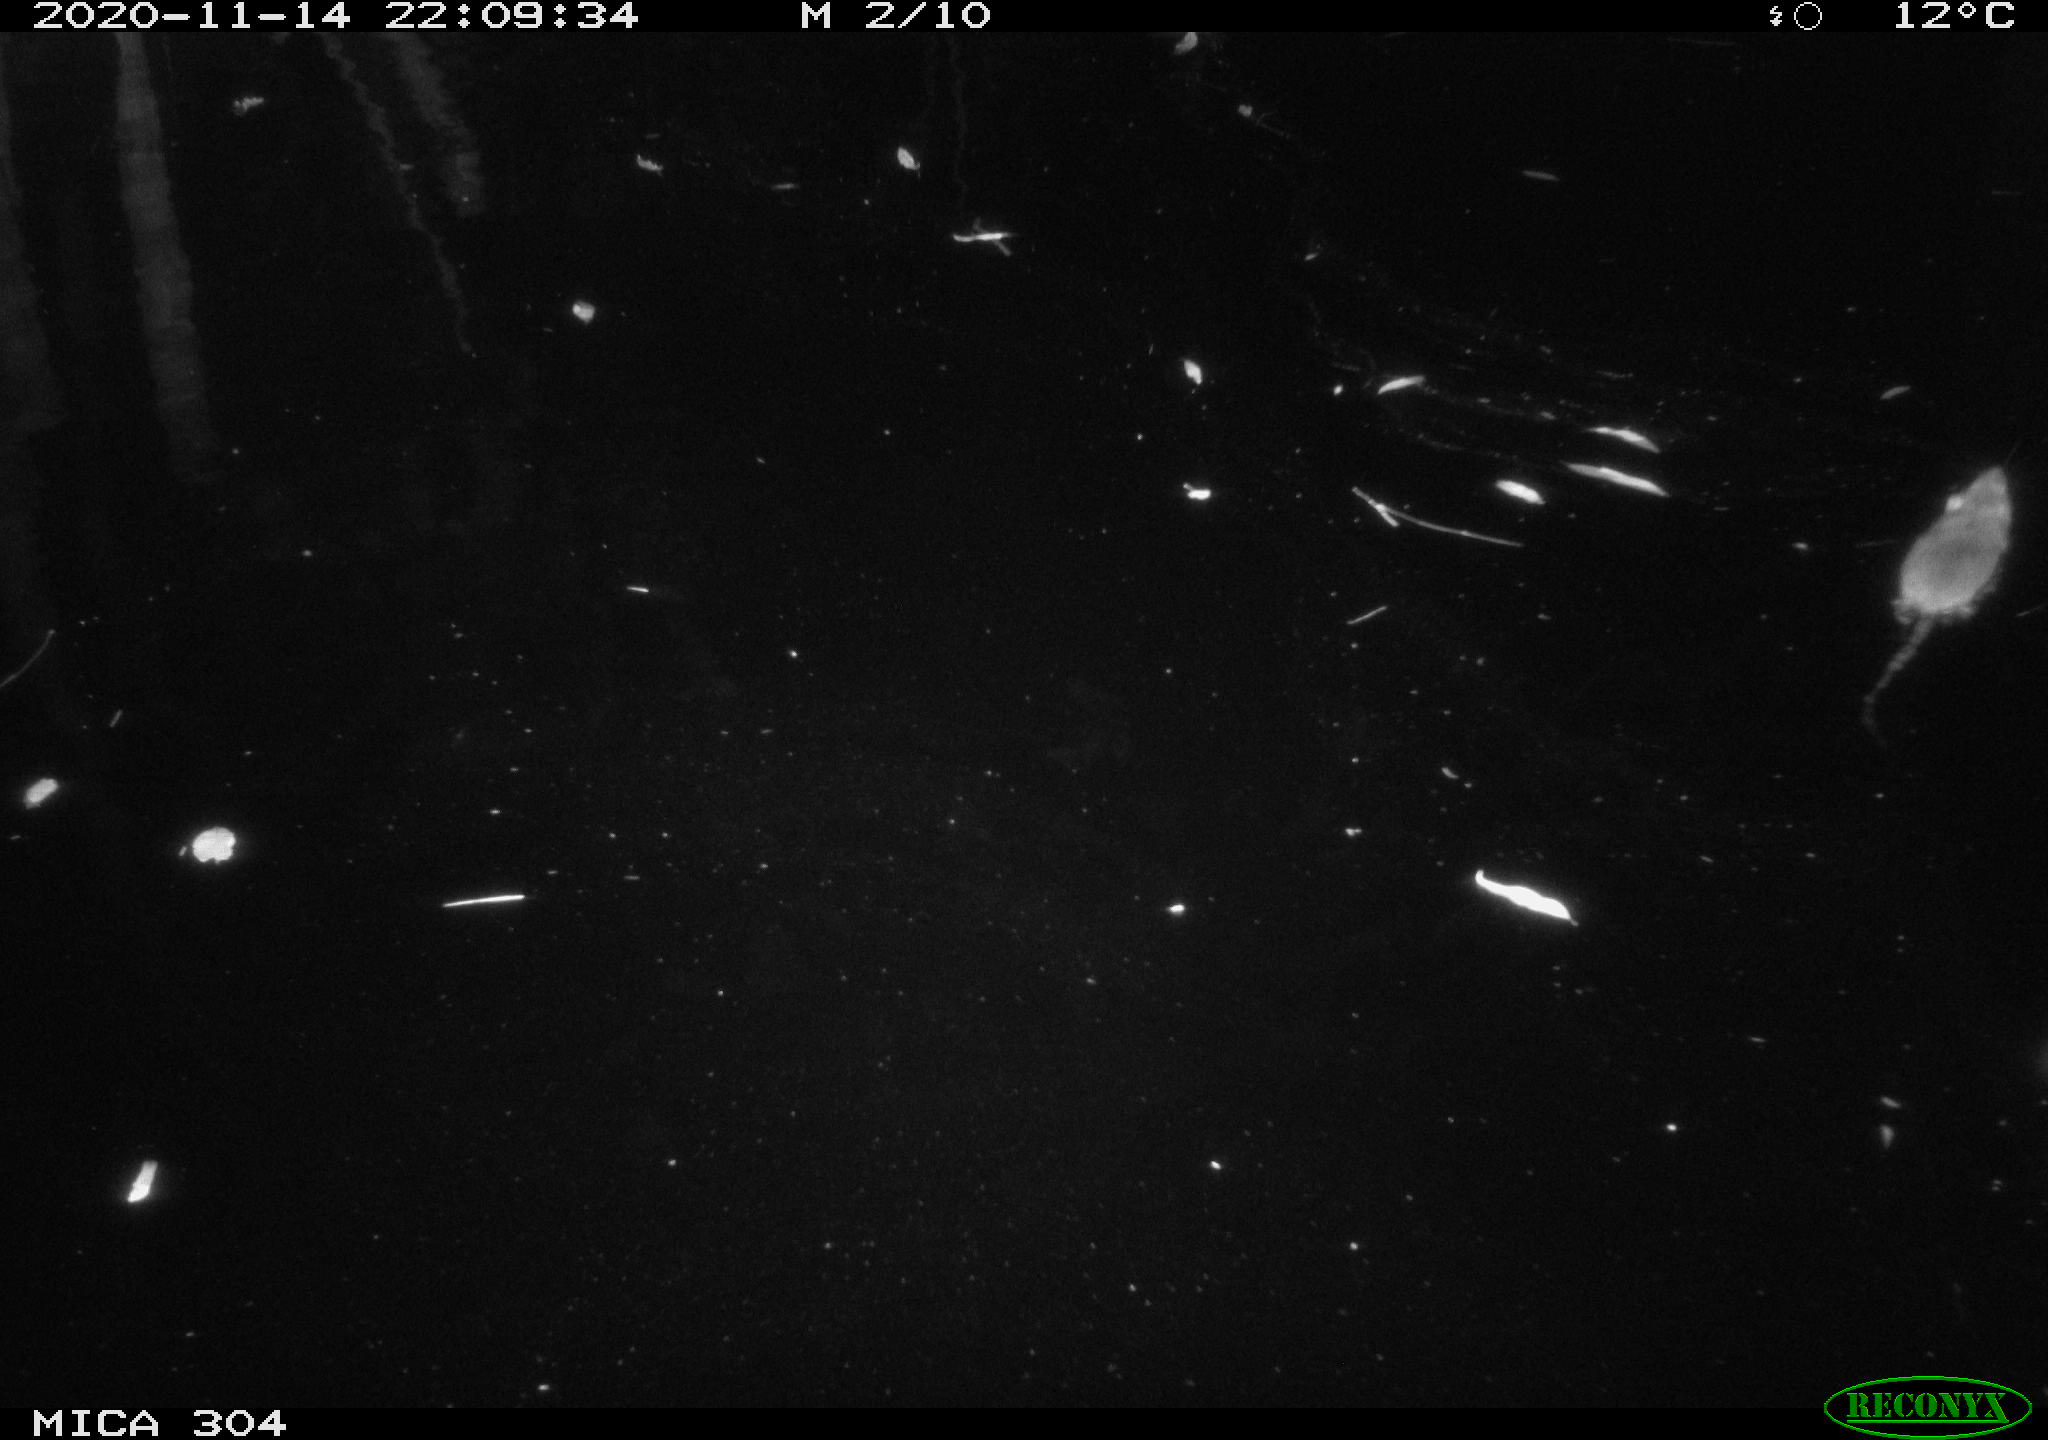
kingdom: Animalia
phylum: Chordata
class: Mammalia
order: Rodentia
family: Muridae
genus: Rattus
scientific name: Rattus norvegicus
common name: Brown rat
